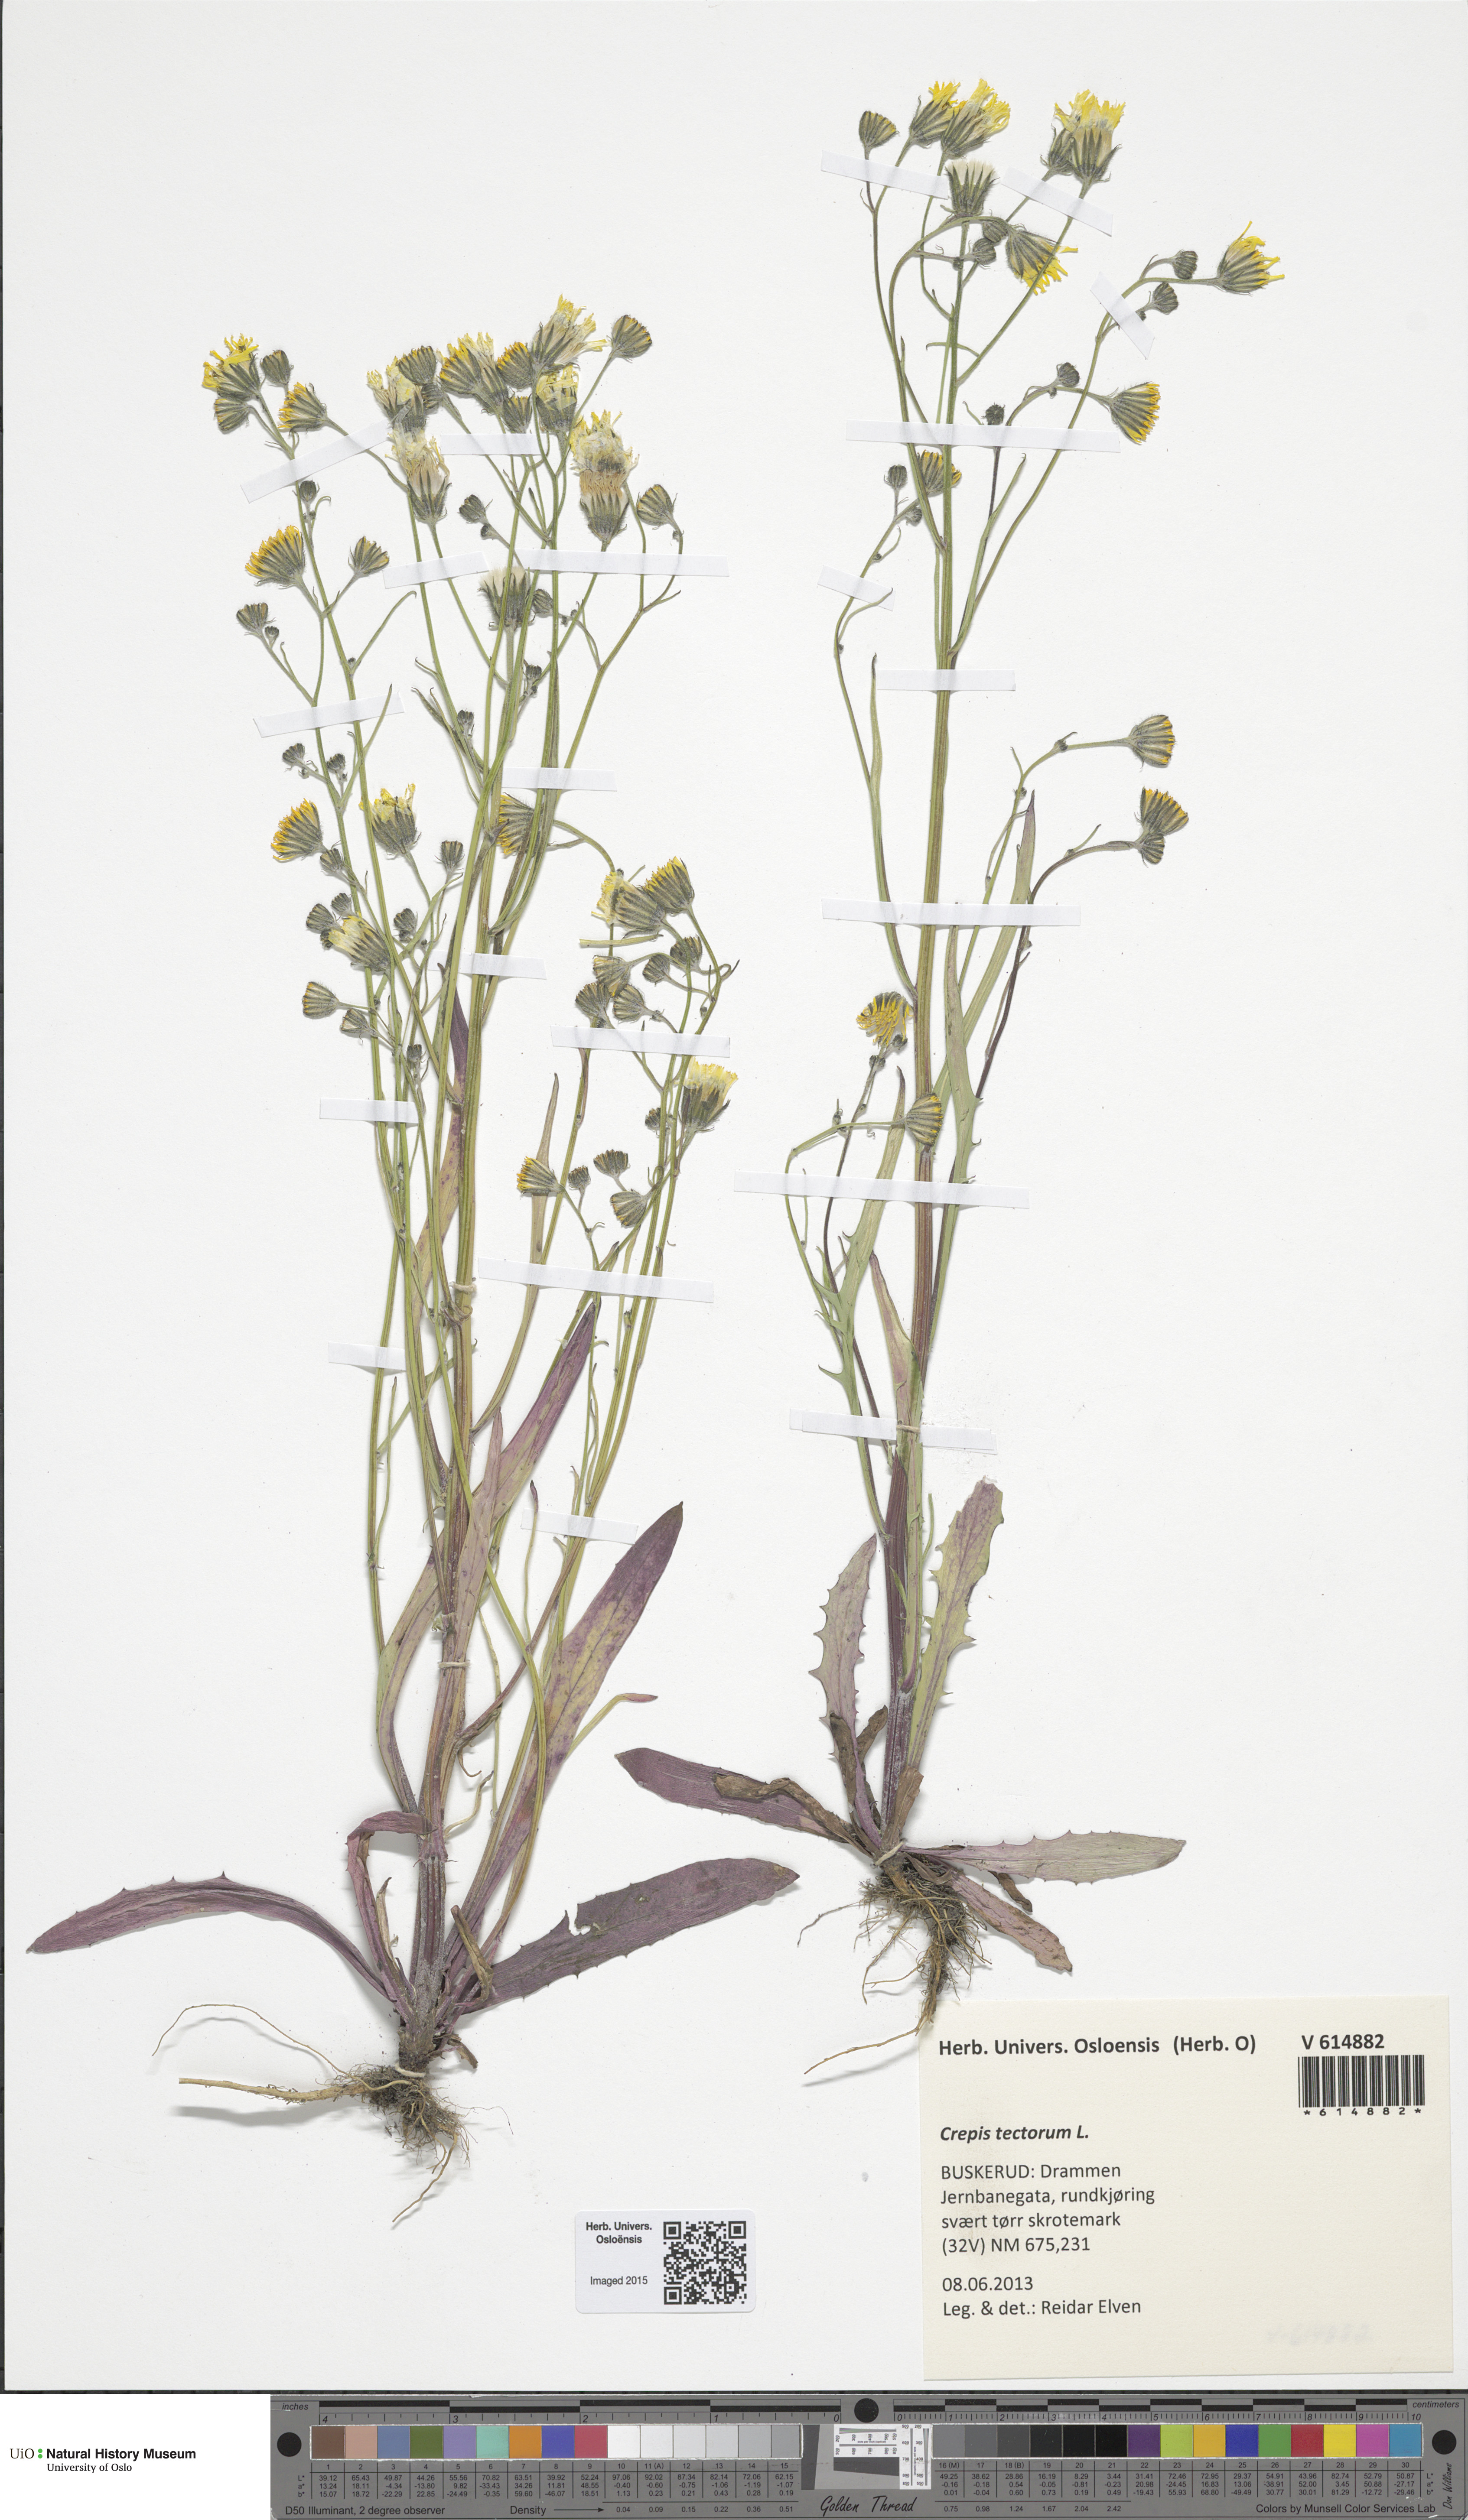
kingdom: Plantae
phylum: Tracheophyta
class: Magnoliopsida
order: Asterales
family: Asteraceae
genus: Crepis
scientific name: Crepis tectorum
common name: Narrow-leaved hawk's-beard
